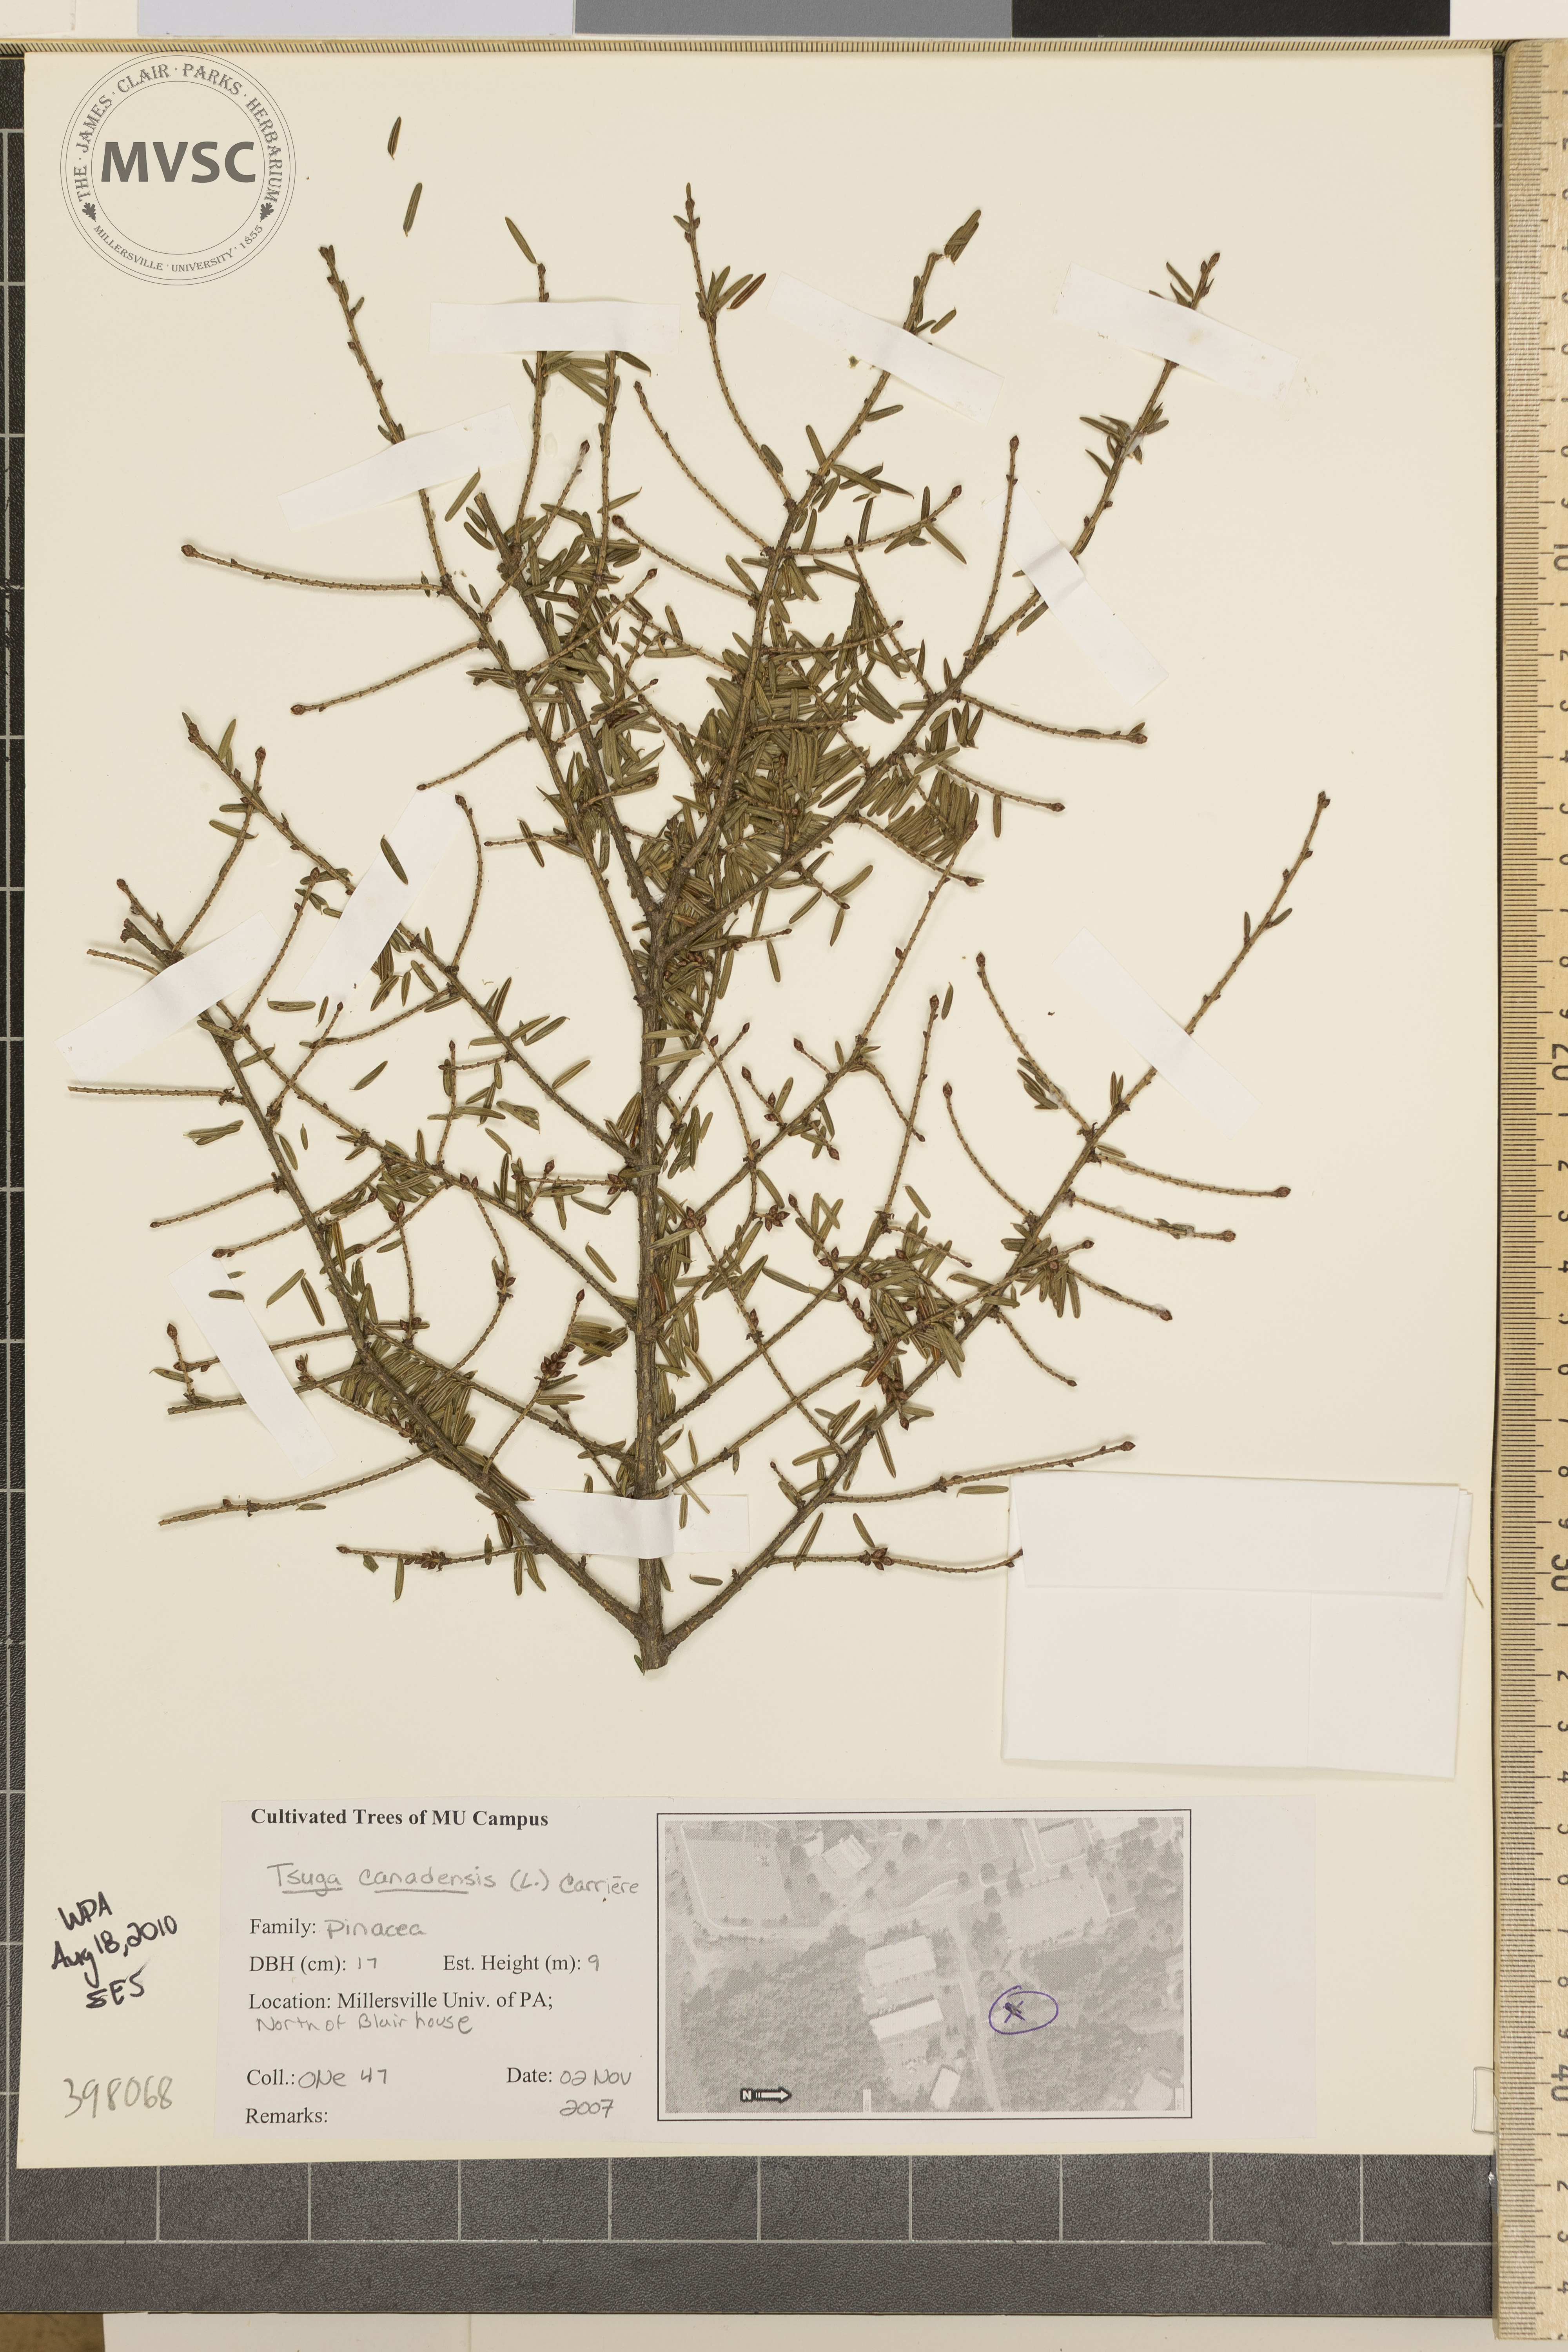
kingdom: Plantae
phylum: Tracheophyta
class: Pinopsida
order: Pinales
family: Pinaceae
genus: Tsuga
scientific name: Tsuga canadensis
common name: Canada hemlock
